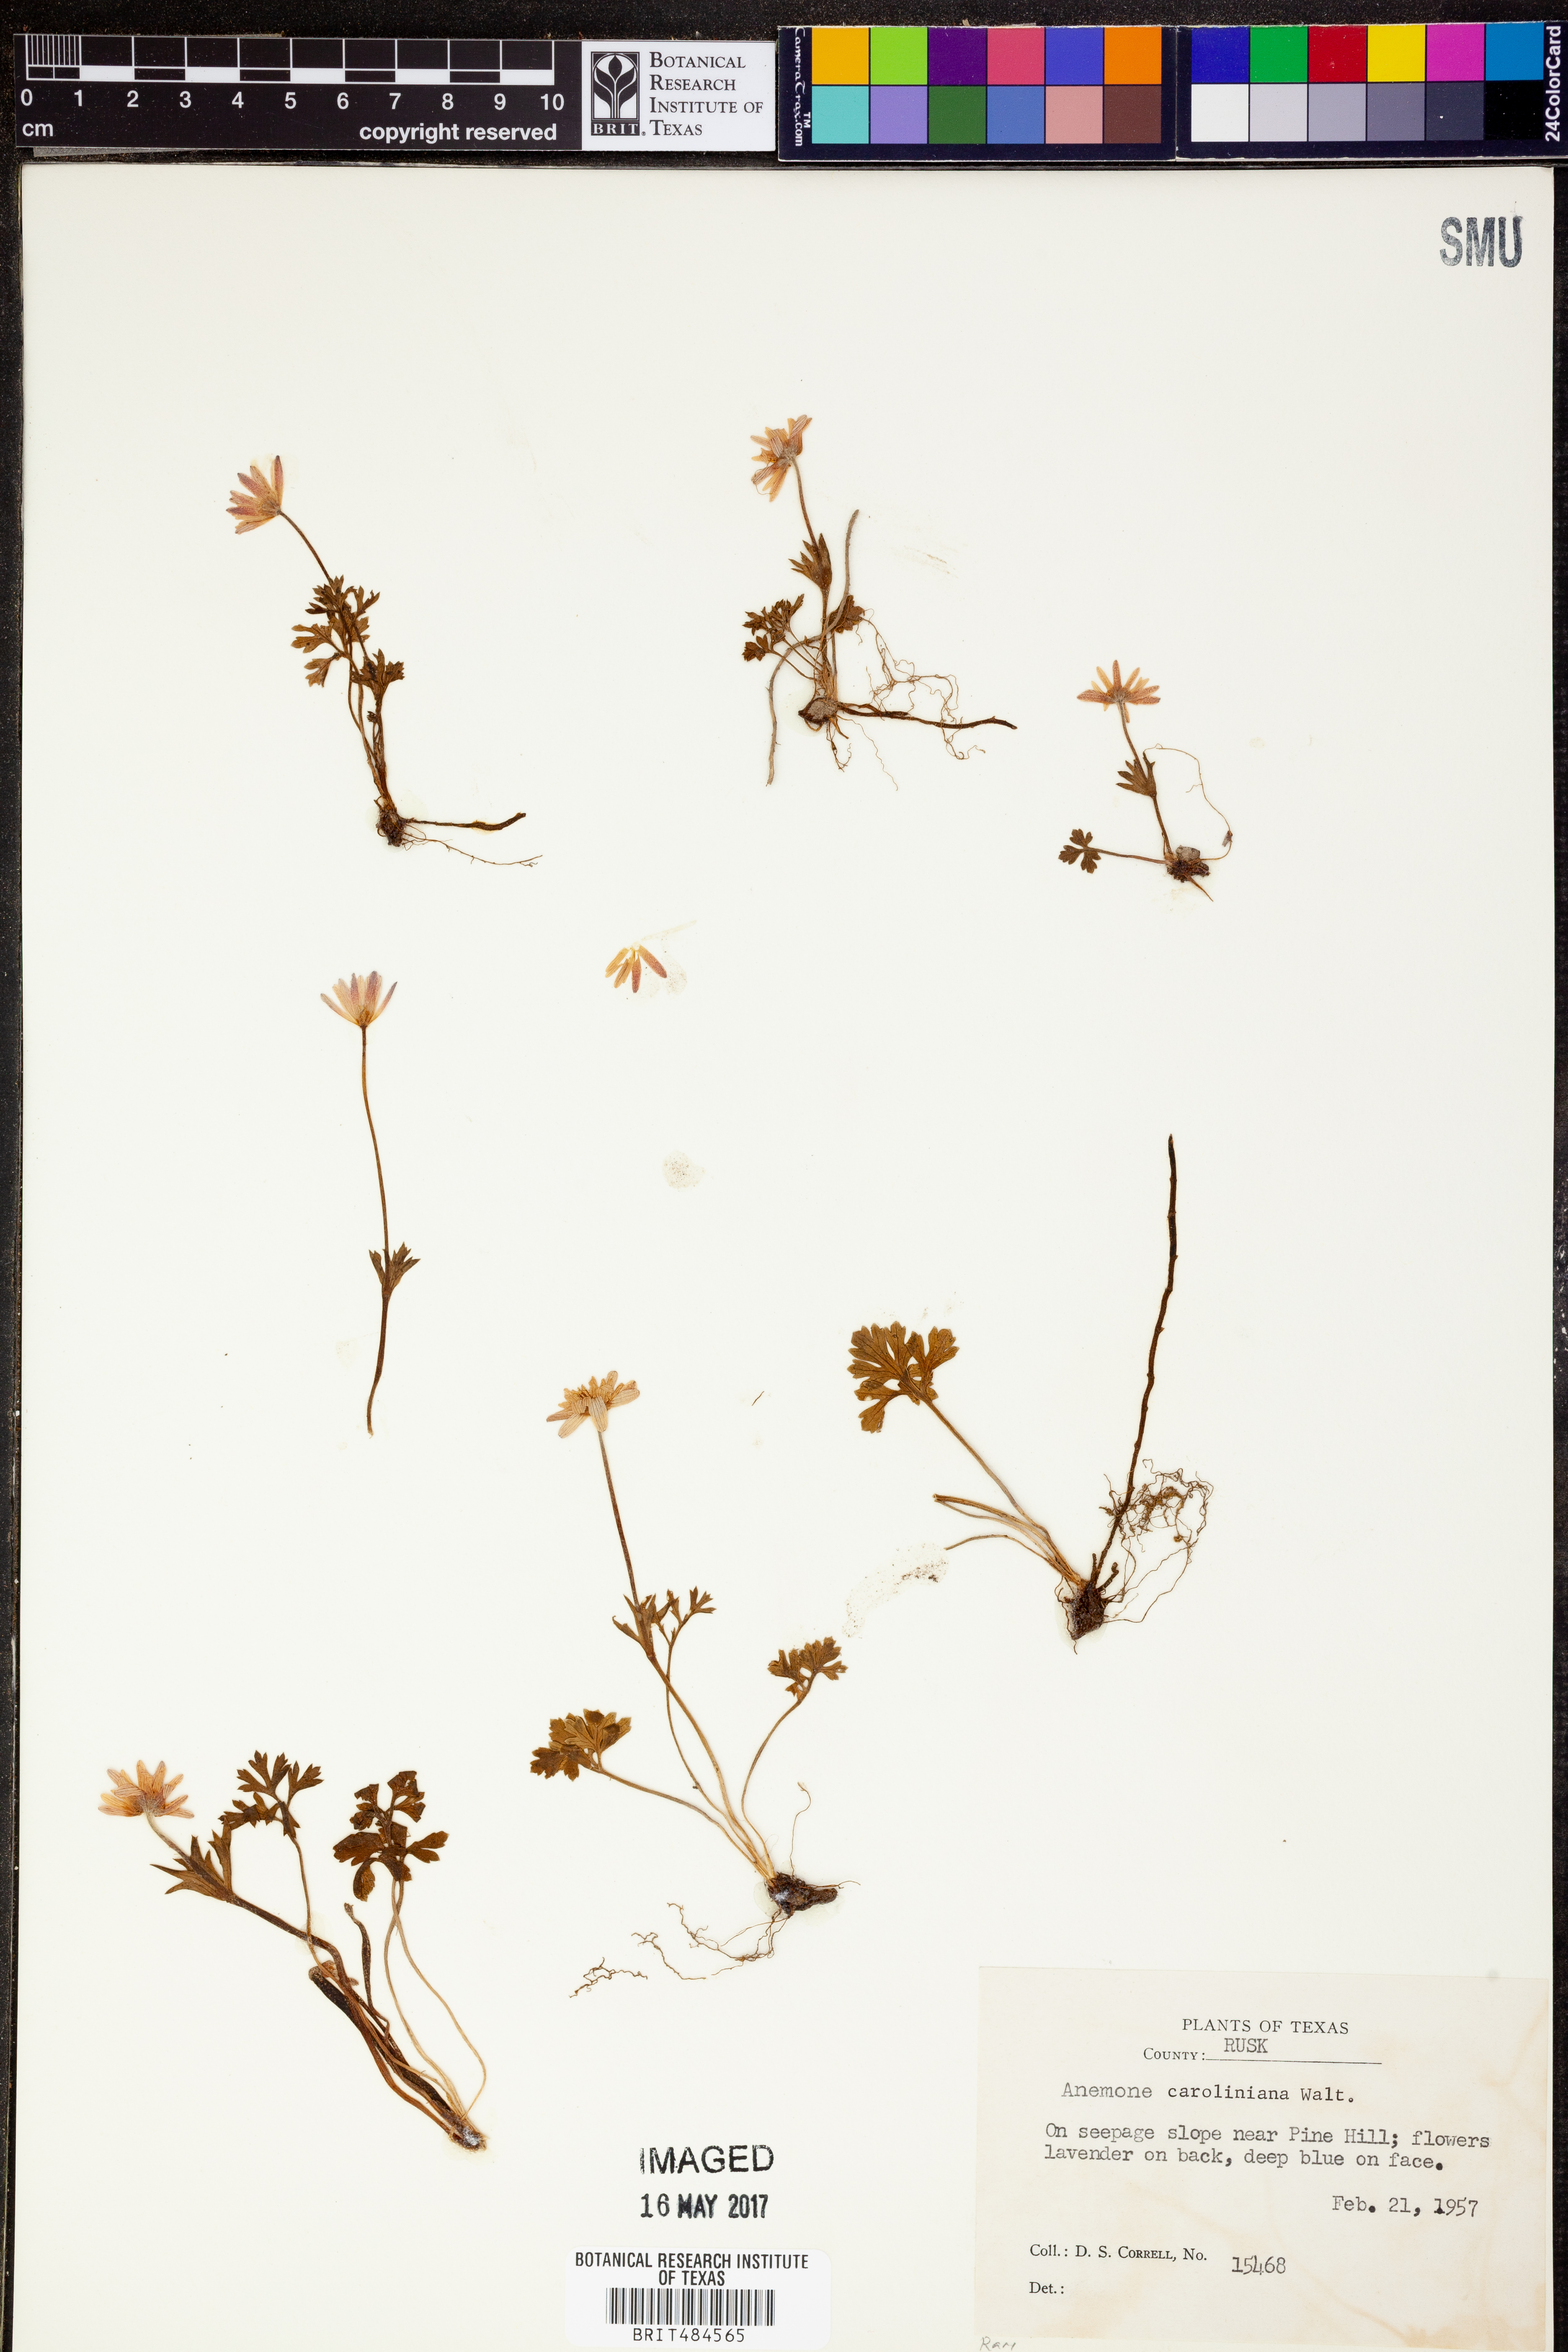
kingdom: Plantae
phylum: Tracheophyta
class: Magnoliopsida
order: Ranunculales
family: Ranunculaceae
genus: Anemone
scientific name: Anemone caroliniana
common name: Carolina anemone
